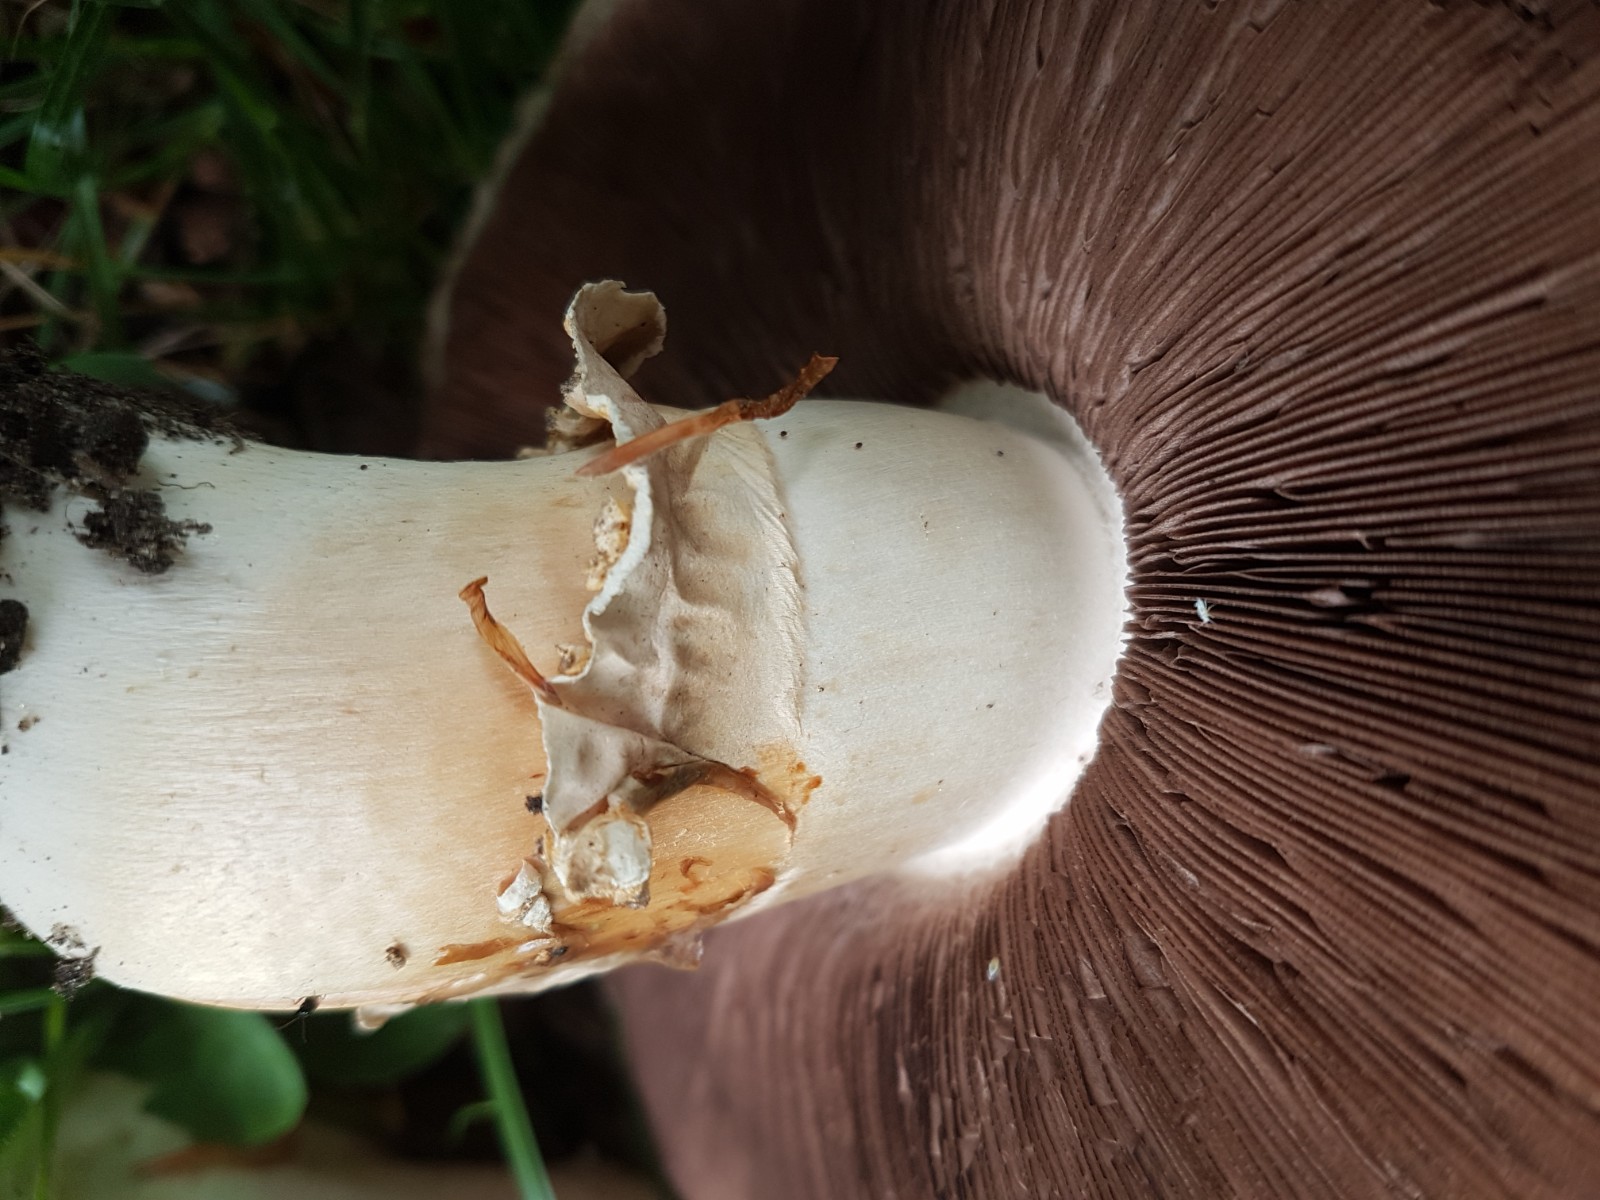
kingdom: Fungi
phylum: Basidiomycota
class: Agaricomycetes
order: Agaricales
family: Agaricaceae
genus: Agaricus
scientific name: Agaricus
